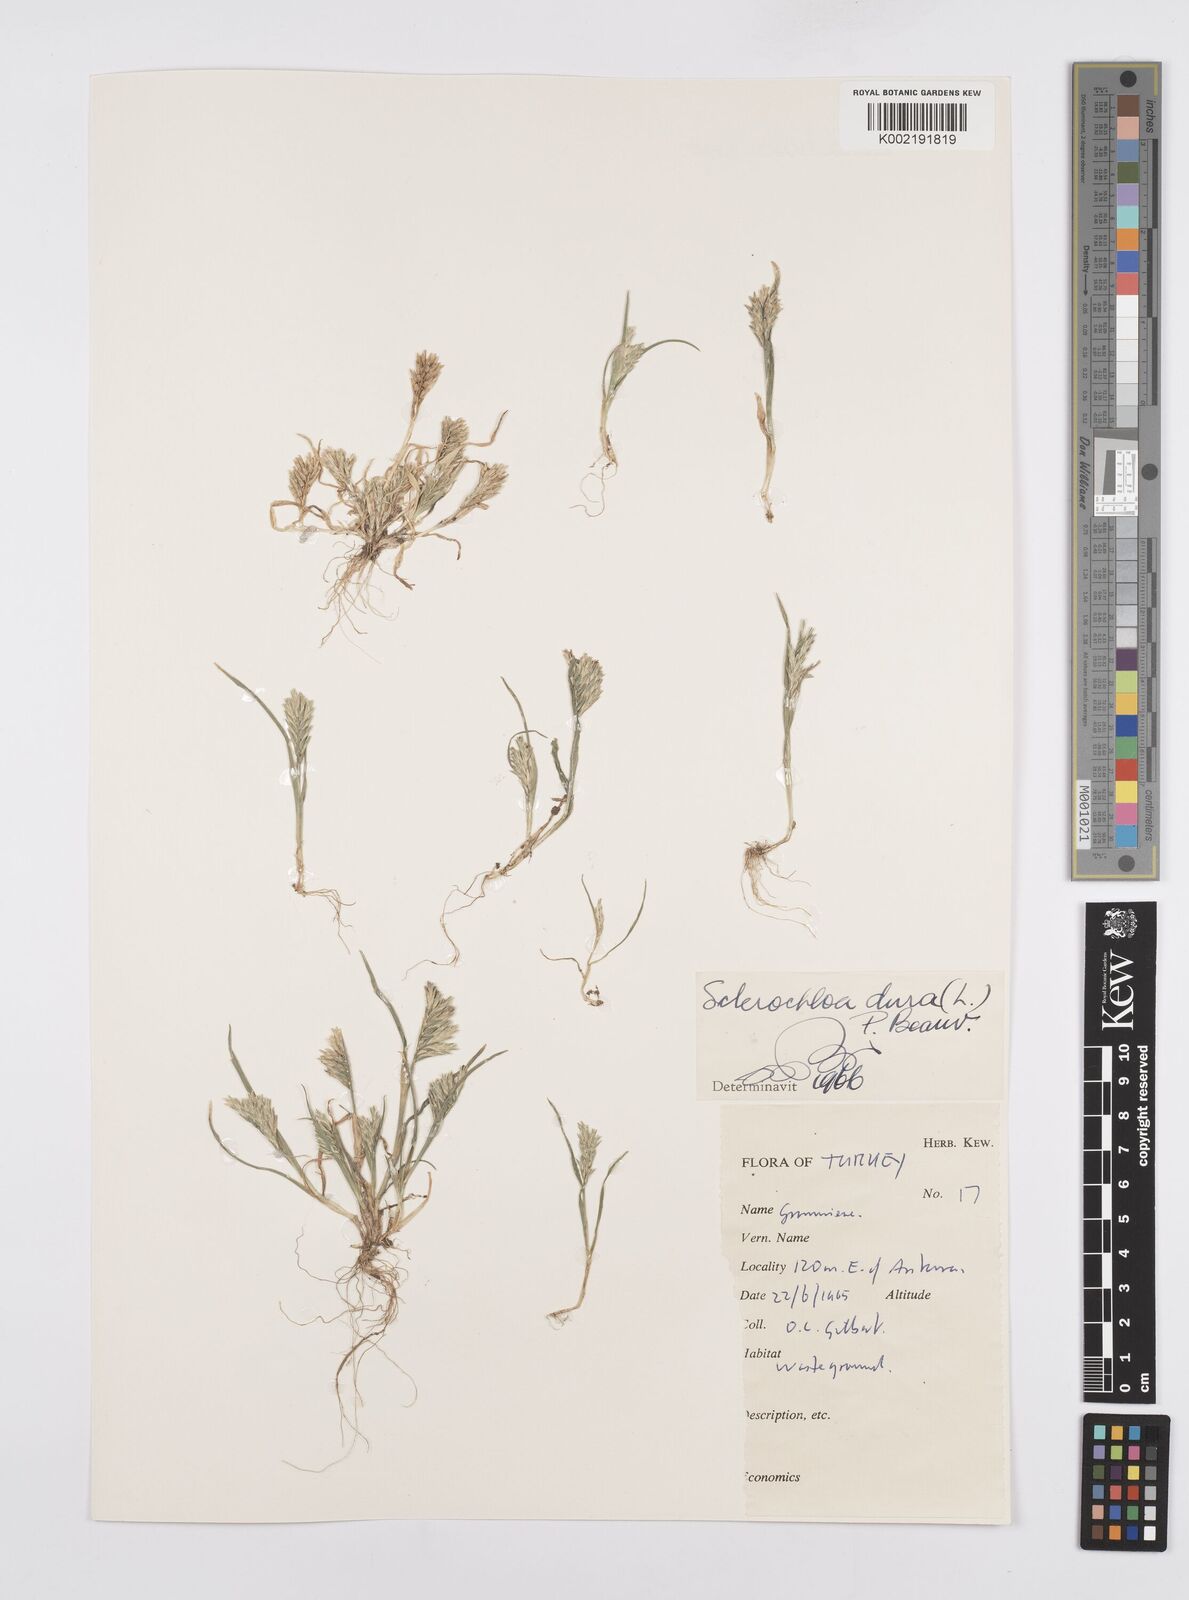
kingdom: Plantae
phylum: Tracheophyta
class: Liliopsida
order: Poales
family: Poaceae
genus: Sclerochloa
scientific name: Sclerochloa dura
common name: Common hardgrass
